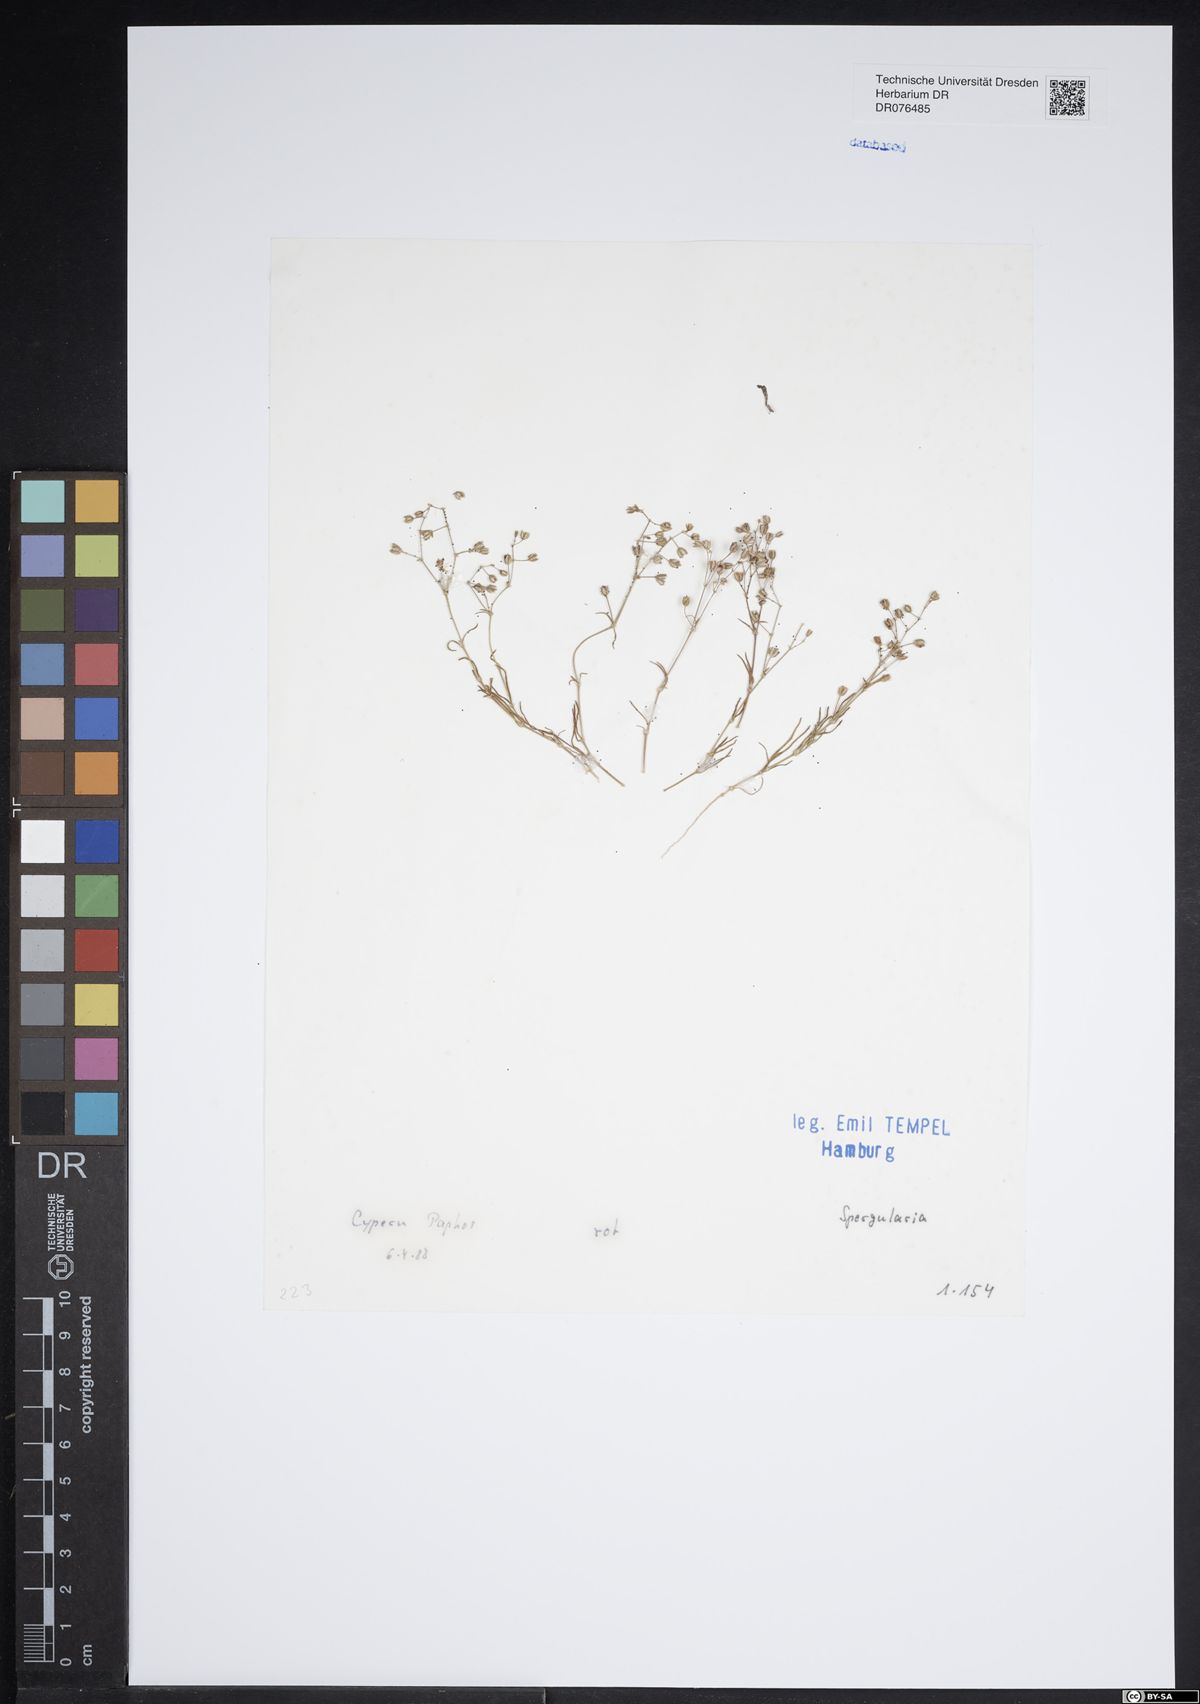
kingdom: Plantae
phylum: Tracheophyta
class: Magnoliopsida
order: Caryophyllales
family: Caryophyllaceae
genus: Spergularia
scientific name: Spergularia
